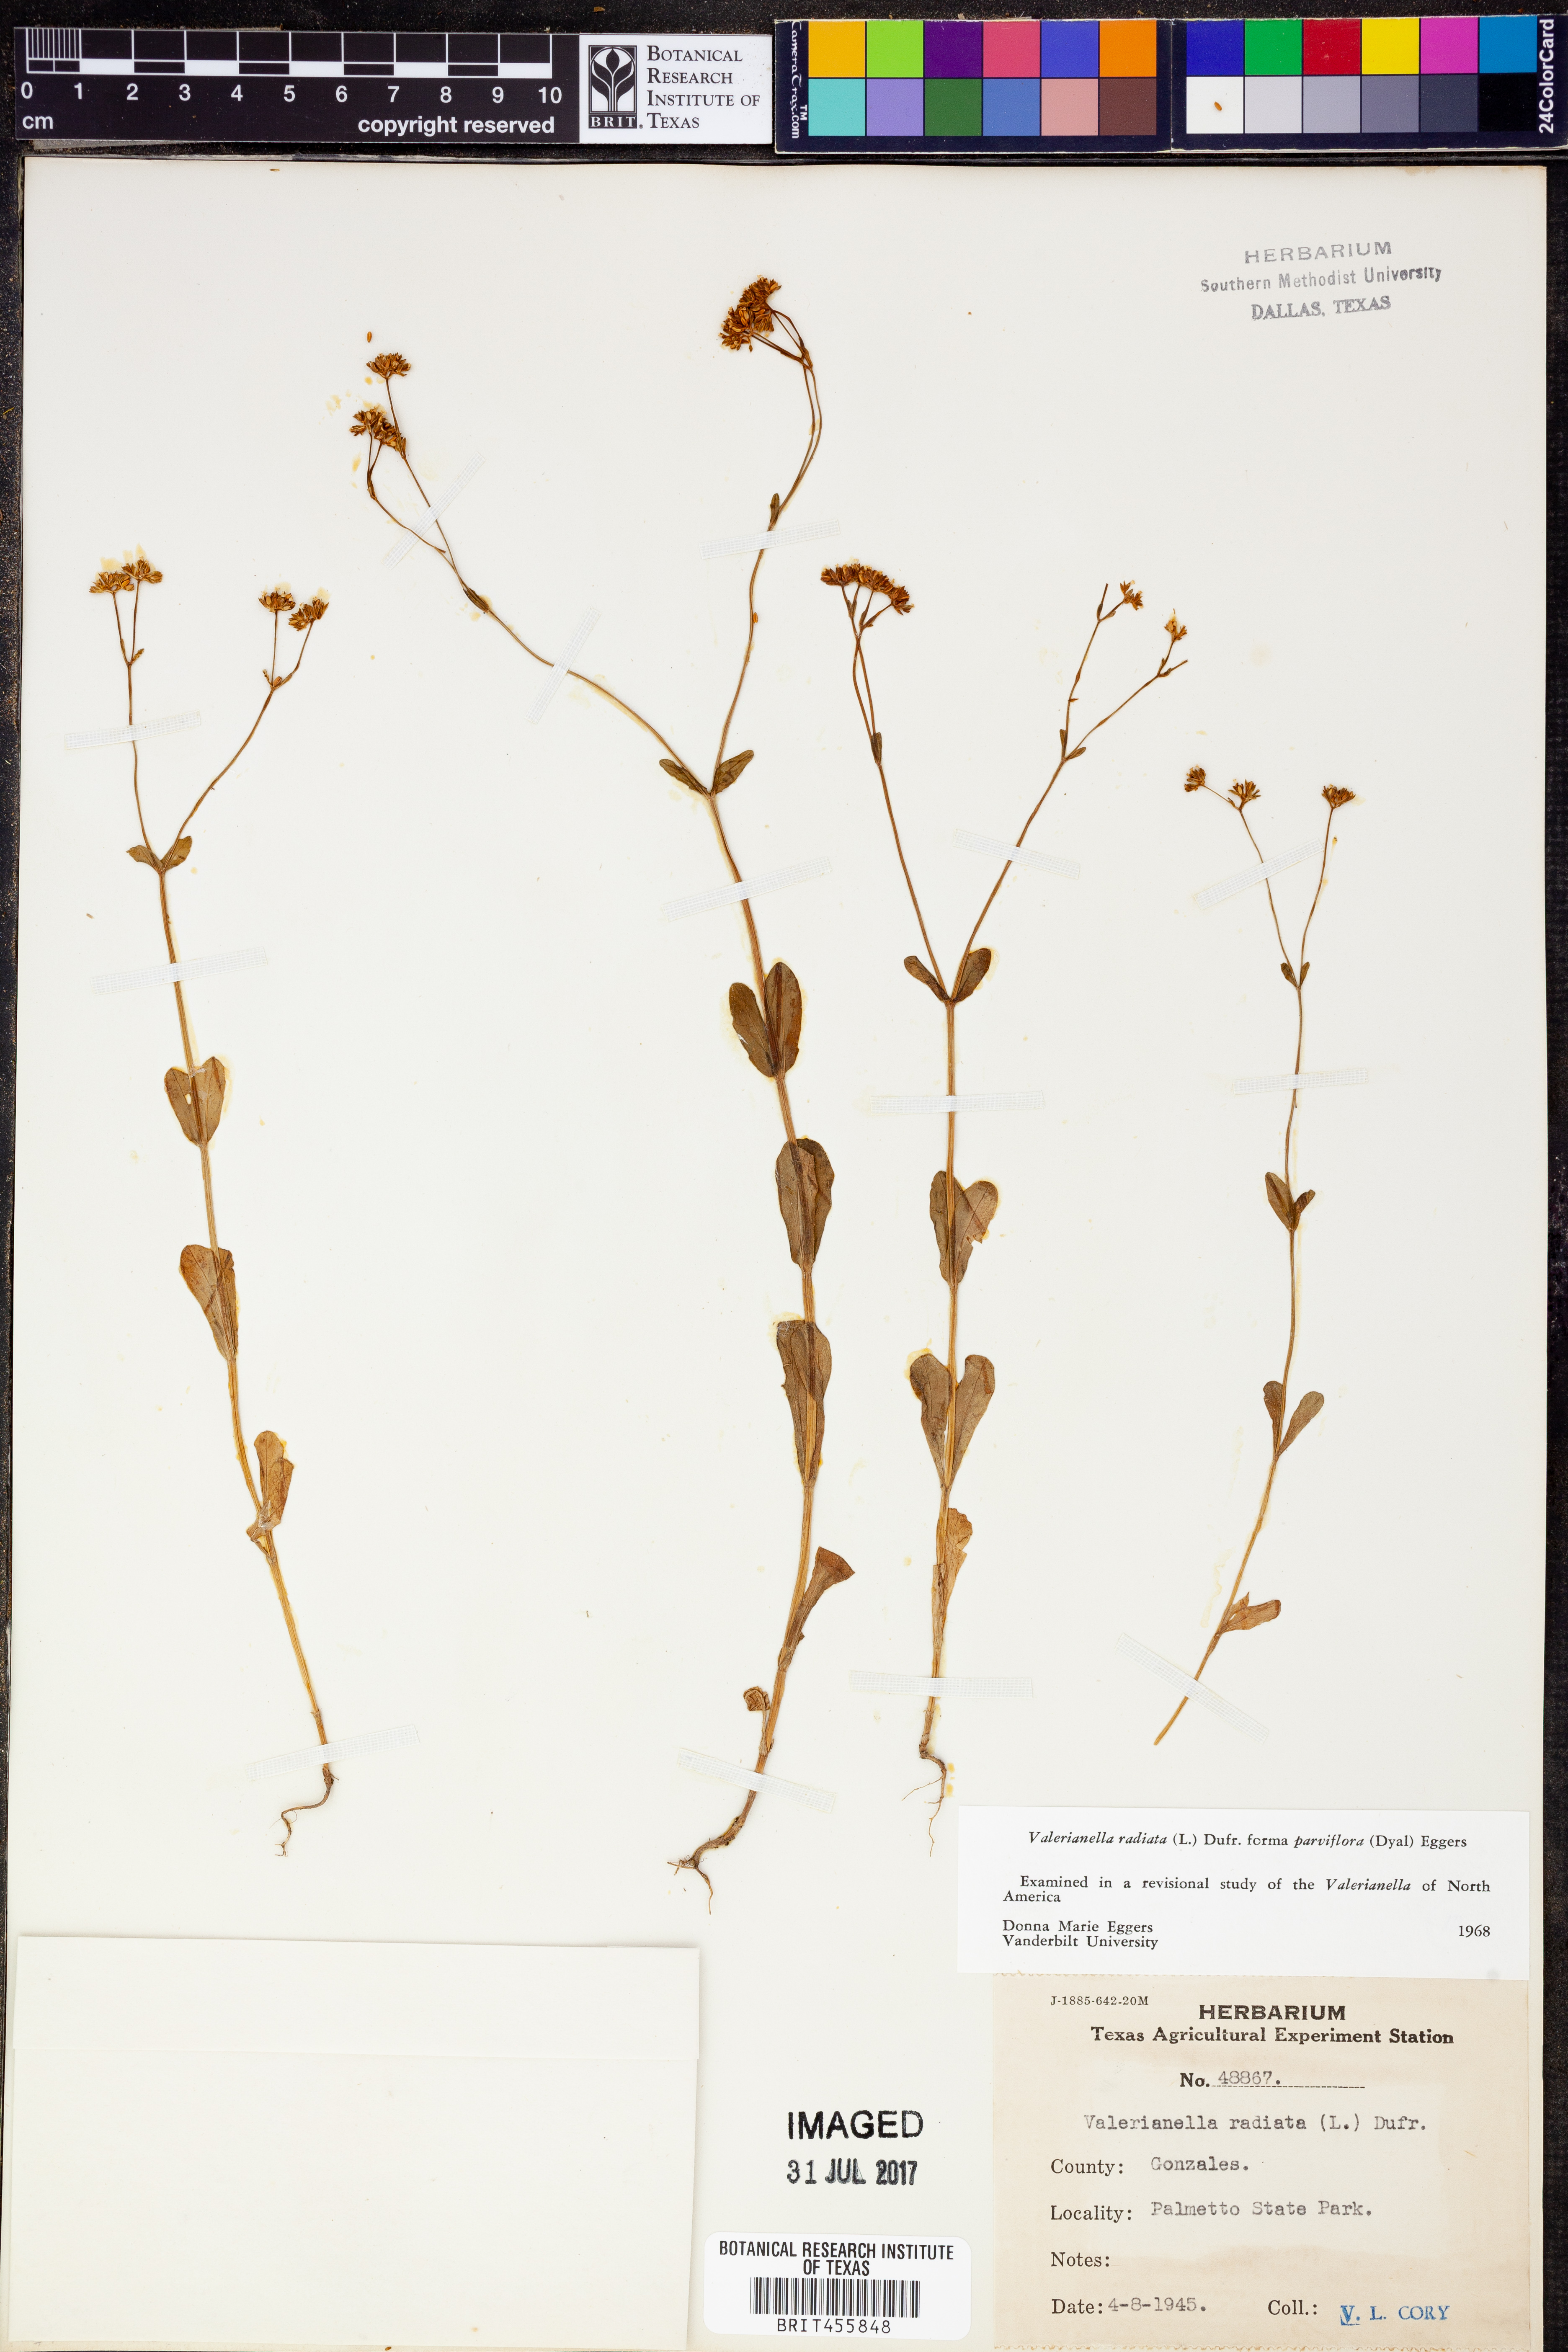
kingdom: Plantae
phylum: Tracheophyta
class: Magnoliopsida
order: Dipsacales
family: Caprifoliaceae
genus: Valerianella
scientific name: Valerianella radiata
